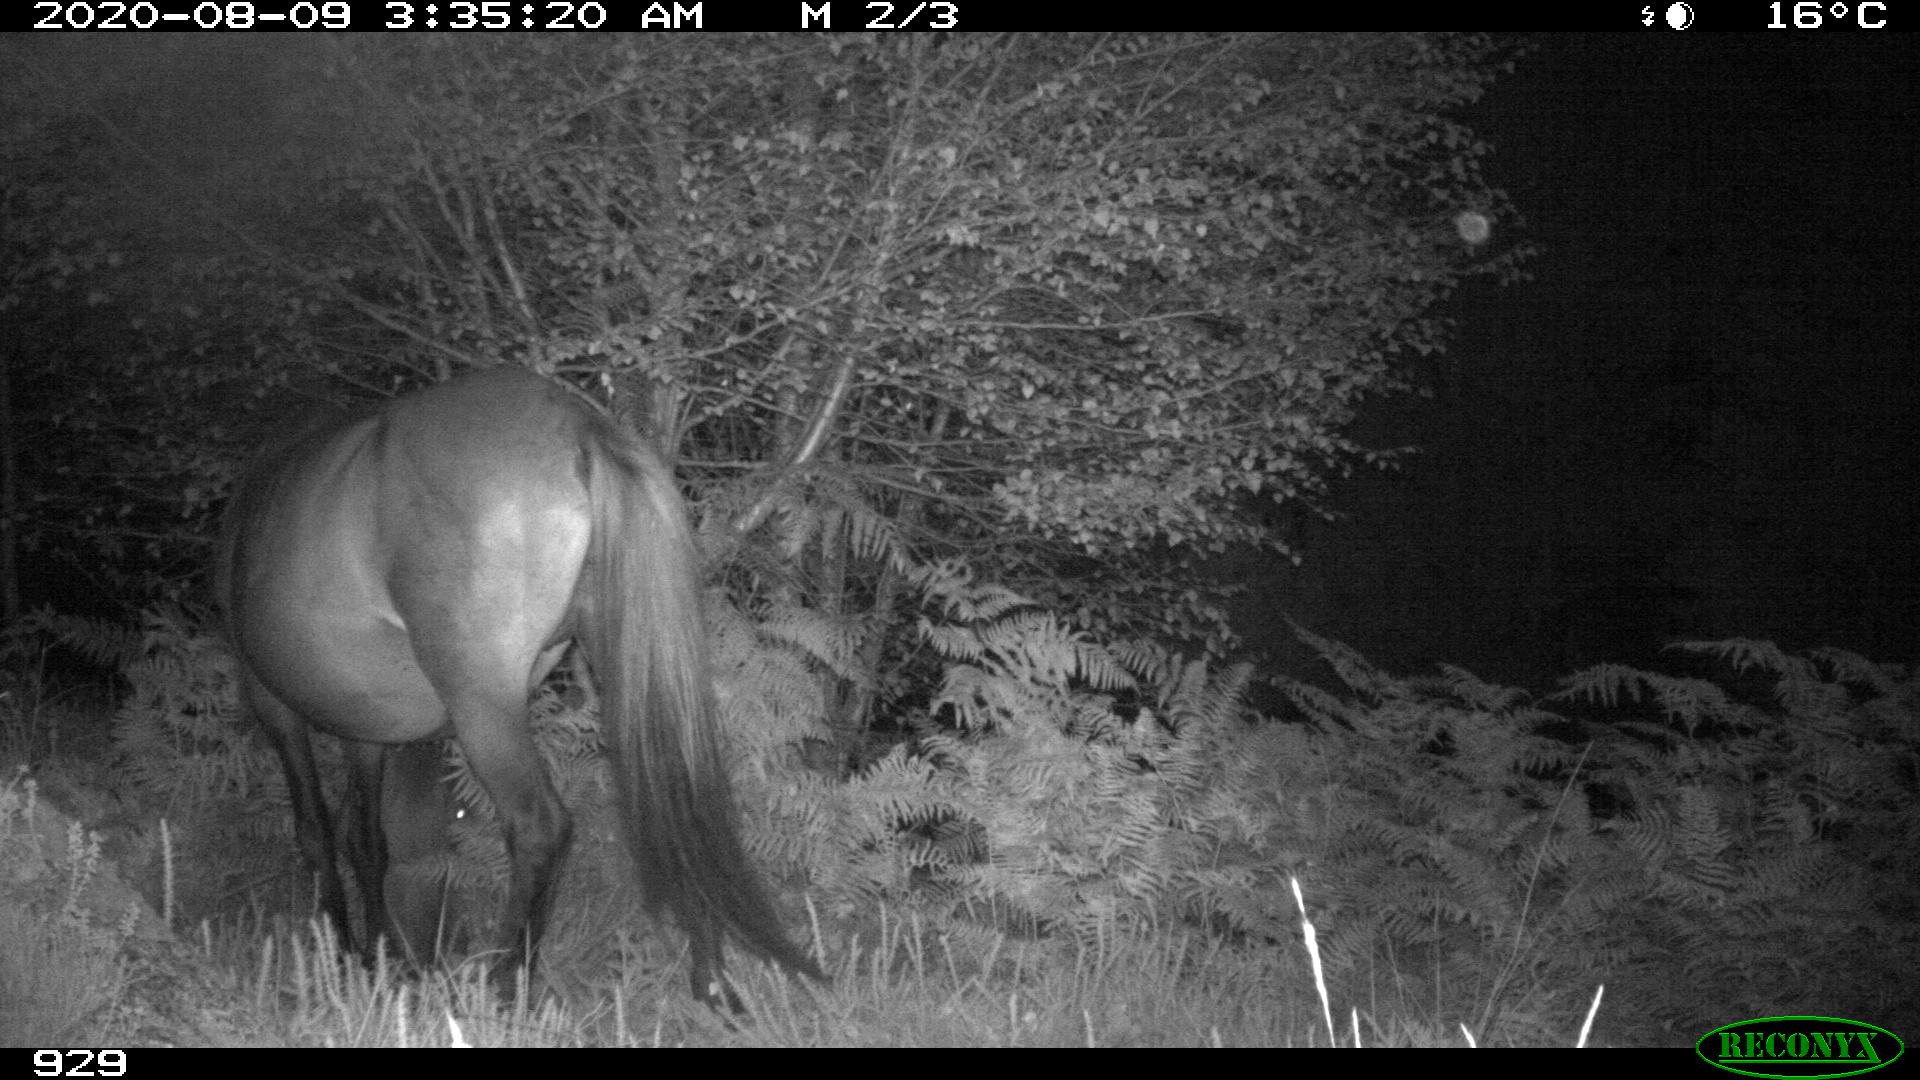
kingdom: Animalia
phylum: Chordata
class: Mammalia
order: Perissodactyla
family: Equidae
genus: Equus
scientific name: Equus caballus
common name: Horse
